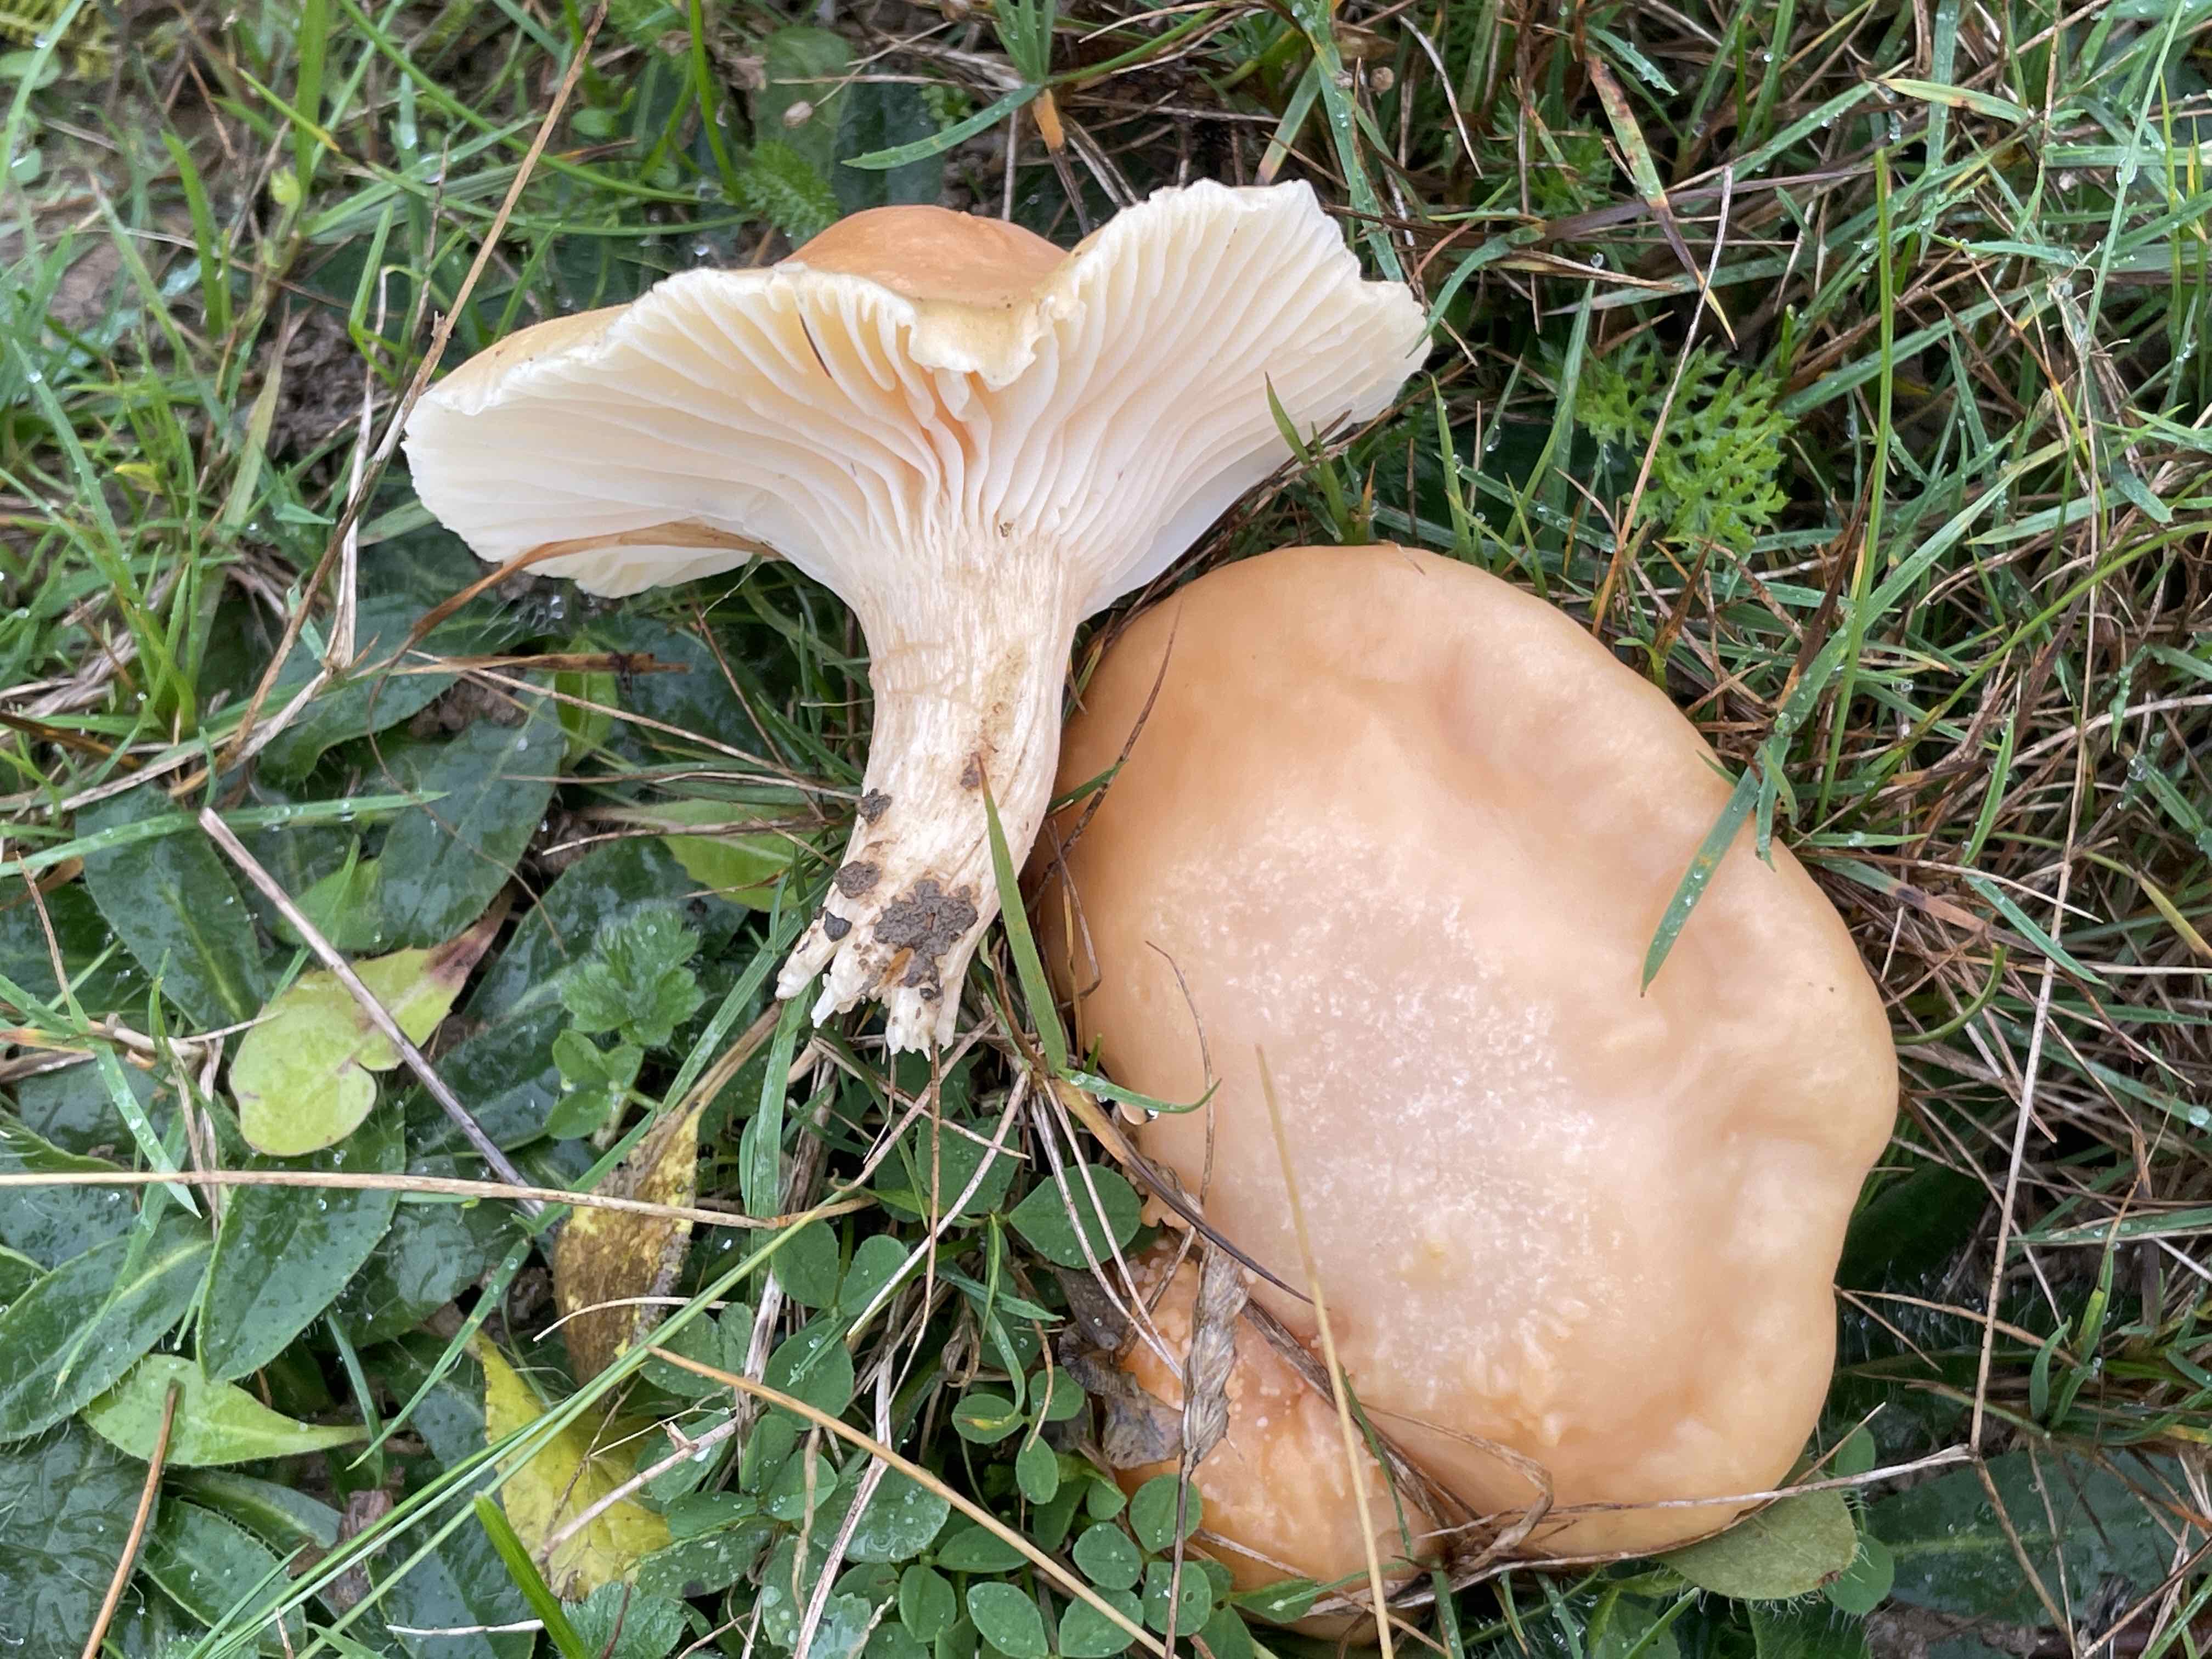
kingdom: Fungi
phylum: Basidiomycota
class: Agaricomycetes
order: Agaricales
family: Hygrophoraceae
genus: Cuphophyllus
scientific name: Cuphophyllus pratensis
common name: eng-vokshat
